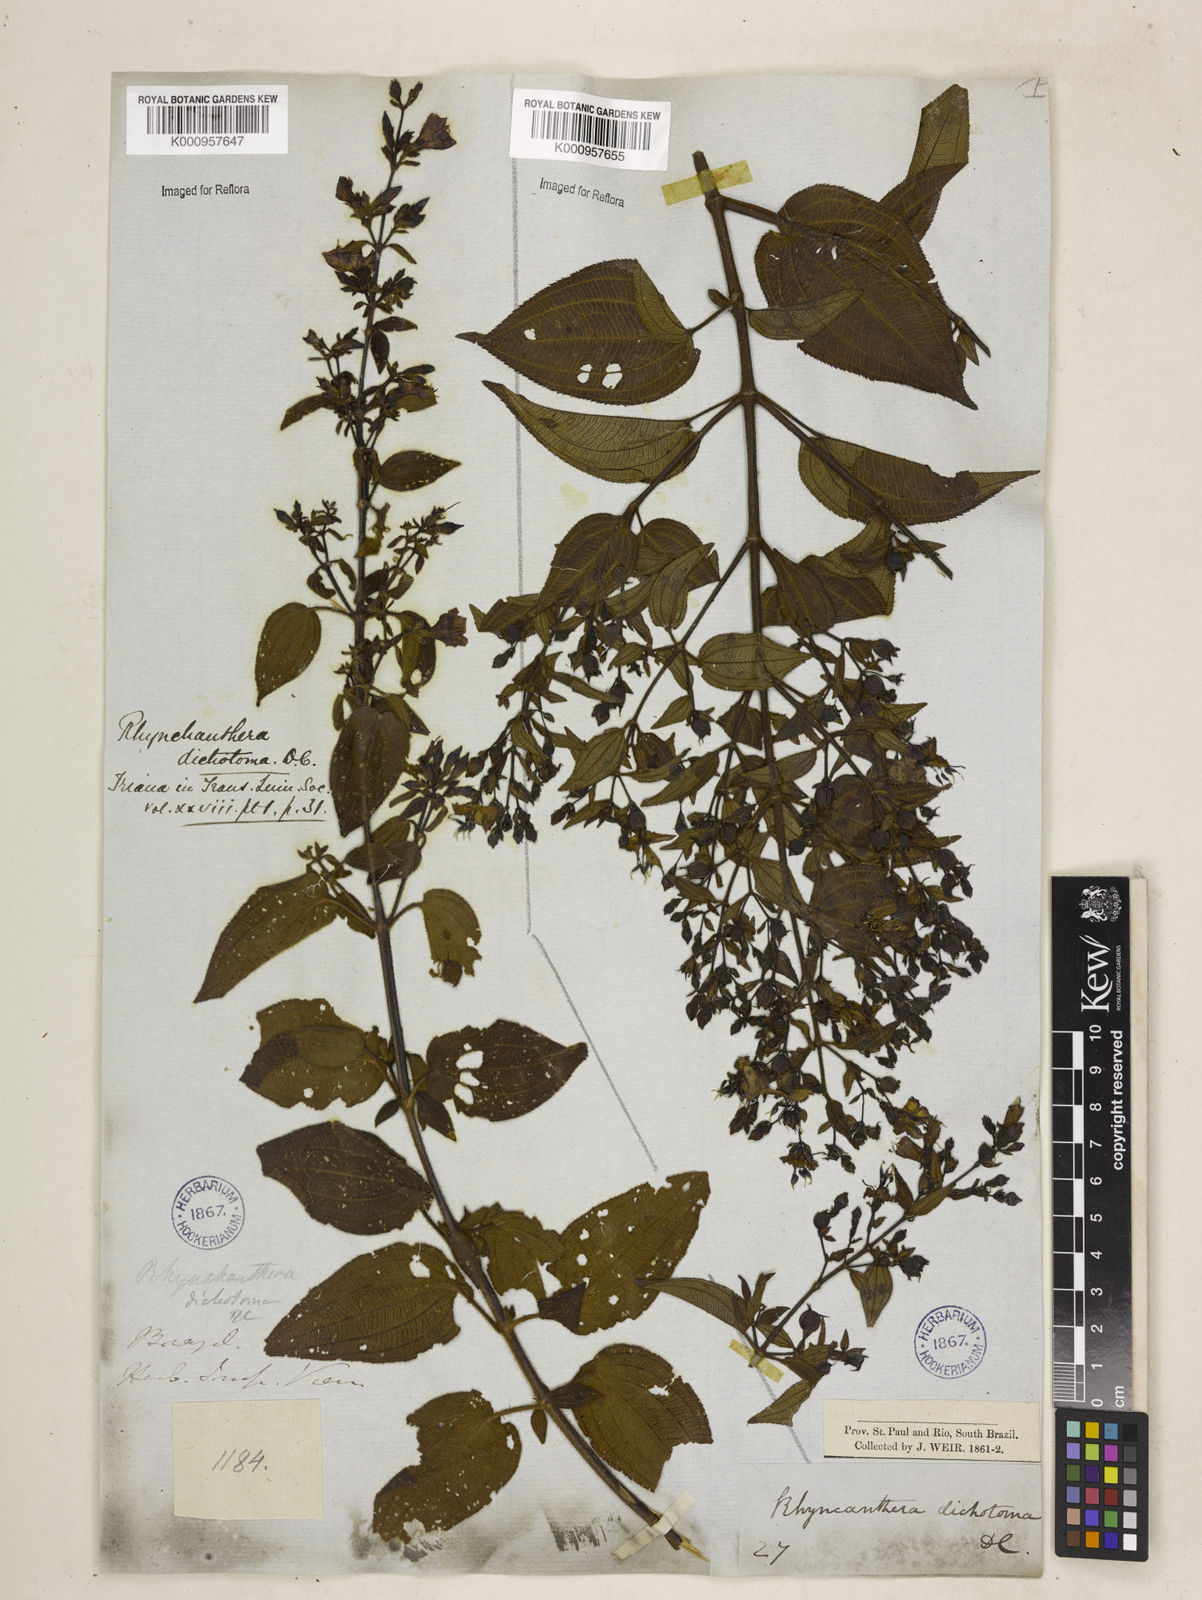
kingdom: Plantae
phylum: Tracheophyta
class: Magnoliopsida
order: Myrtales
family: Melastomataceae
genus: Rhynchanthera
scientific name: Rhynchanthera dichotoma
